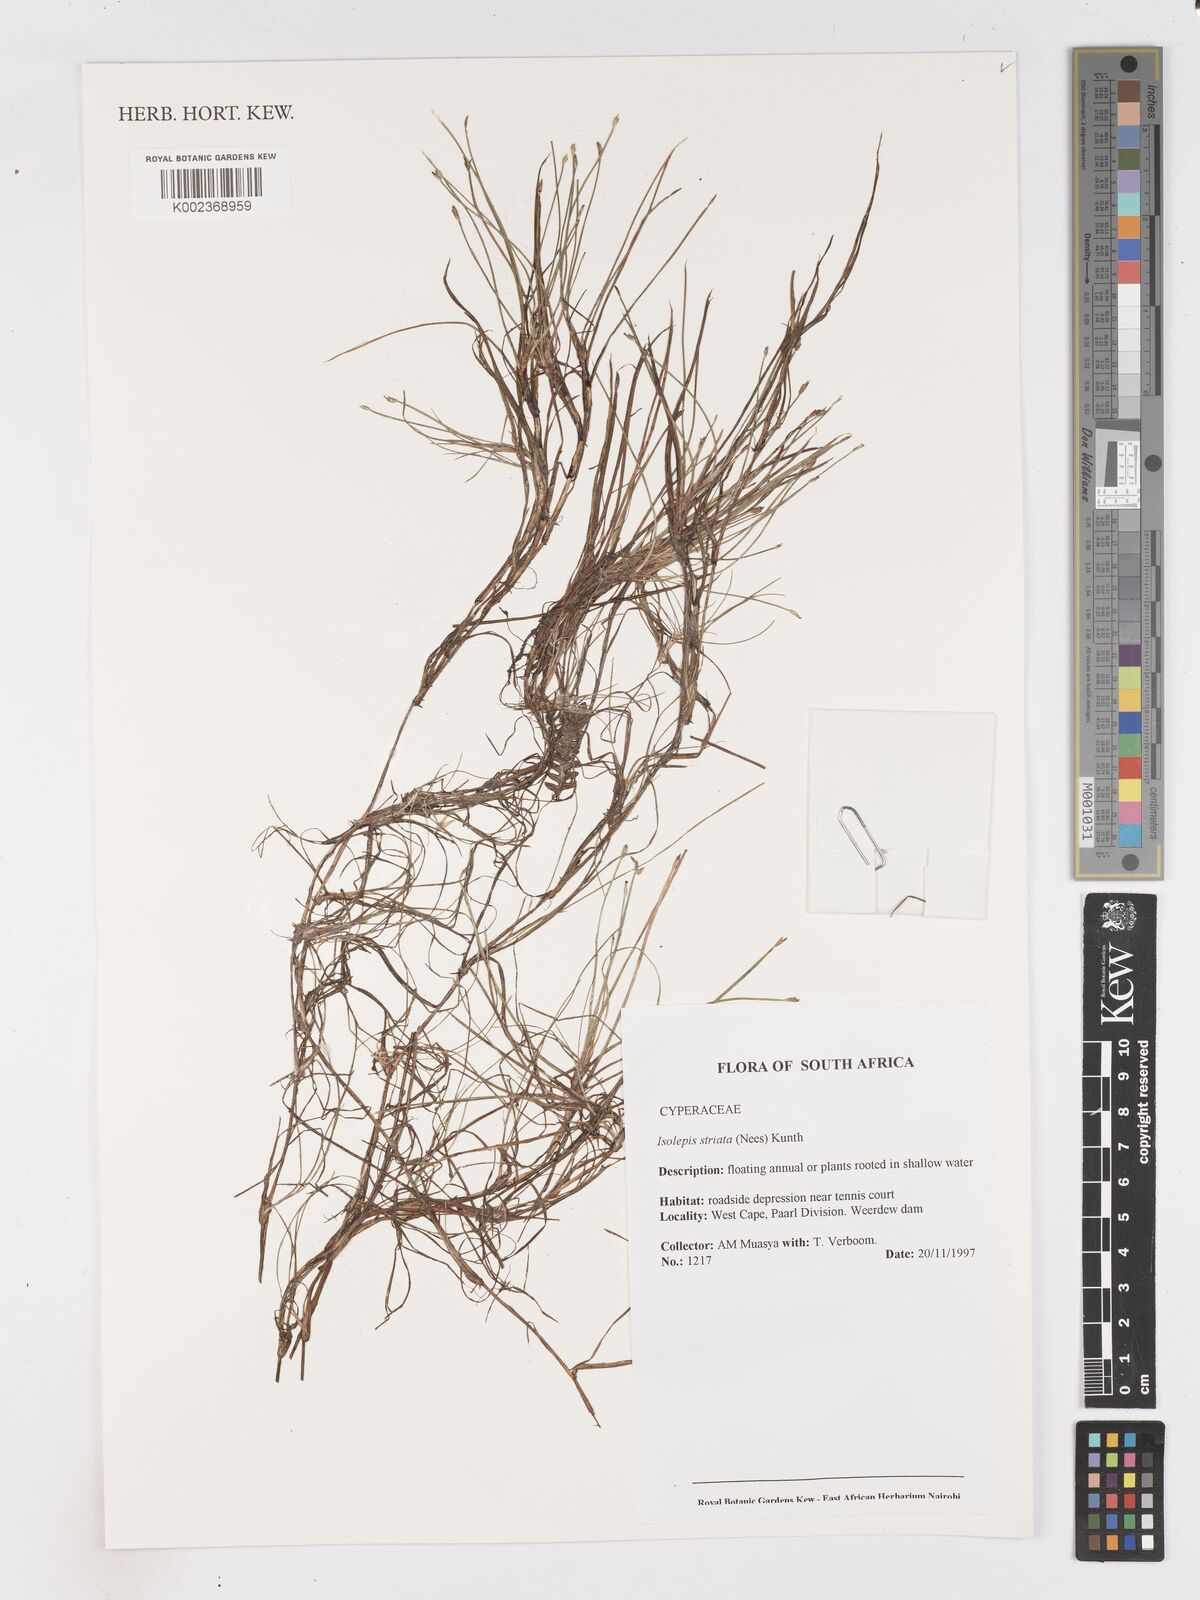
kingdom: Plantae
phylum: Tracheophyta
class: Liliopsida
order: Poales
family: Cyperaceae
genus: Isolepis
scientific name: Isolepis striata
